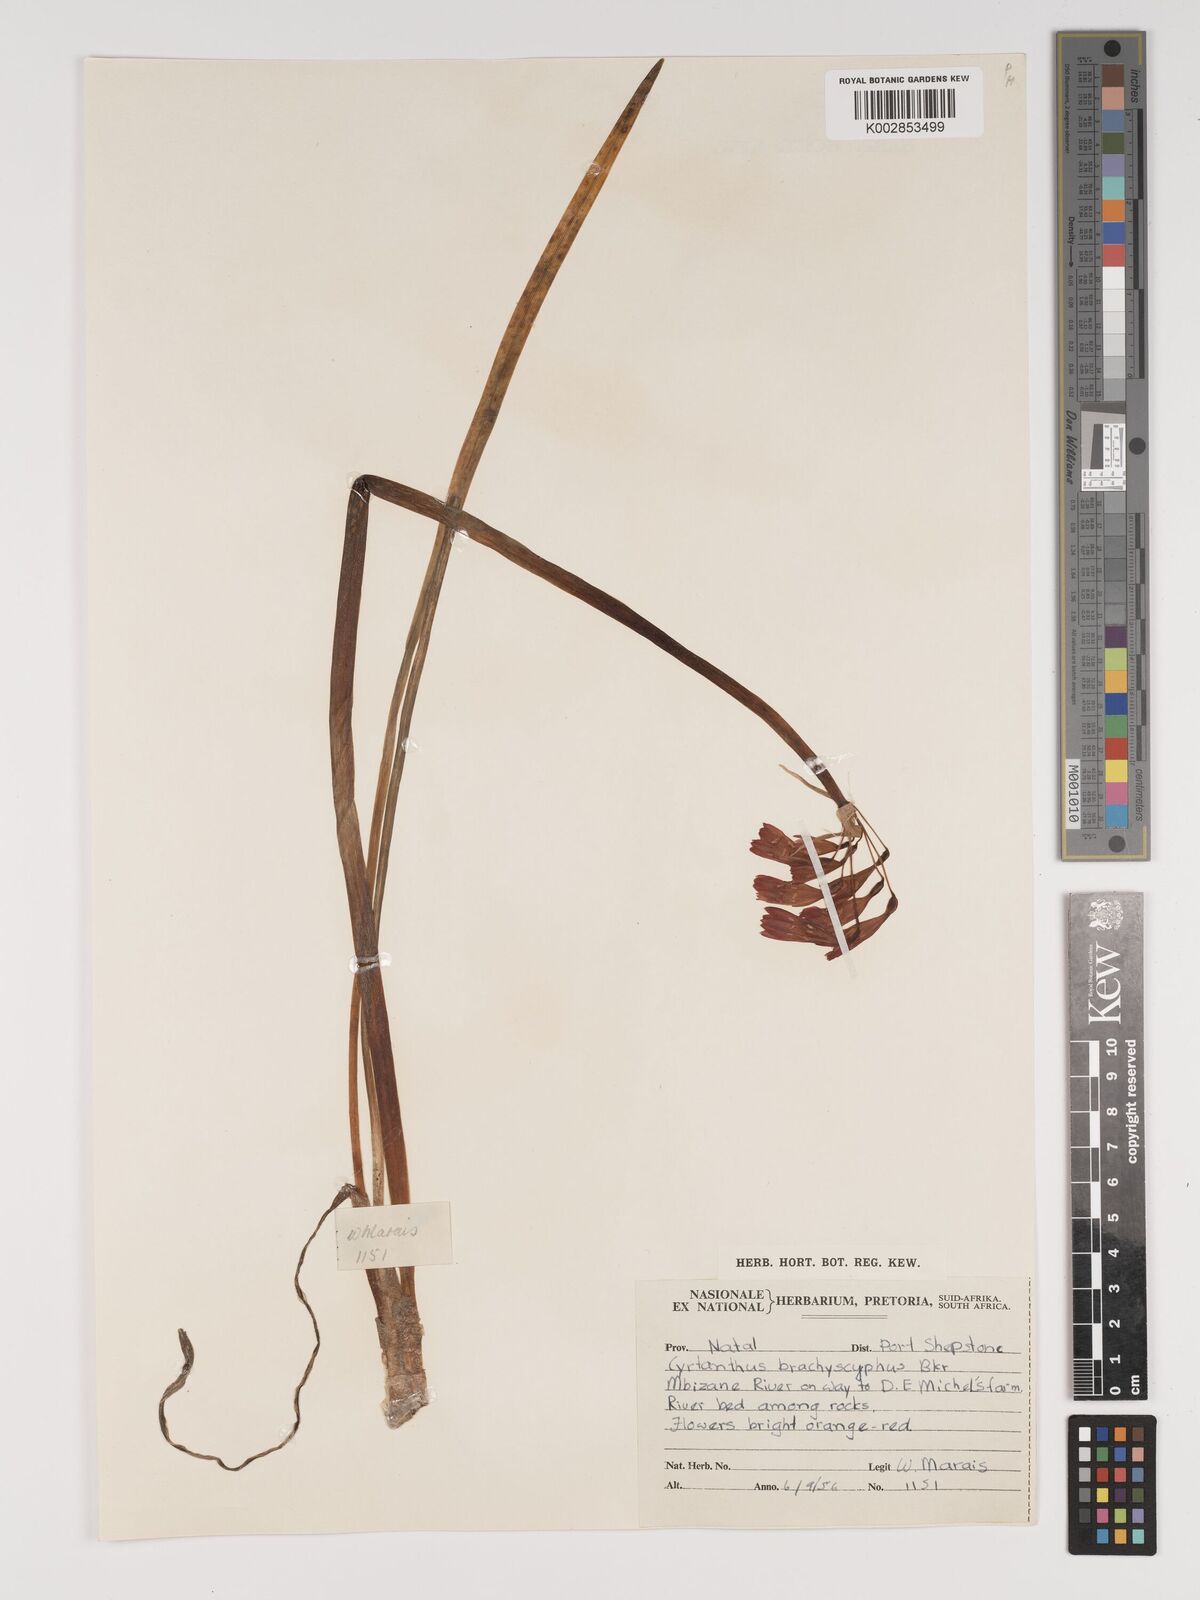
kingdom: Plantae
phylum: Tracheophyta
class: Liliopsida
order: Asparagales
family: Amaryllidaceae
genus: Cyrtanthus
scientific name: Cyrtanthus brachyscyphus
